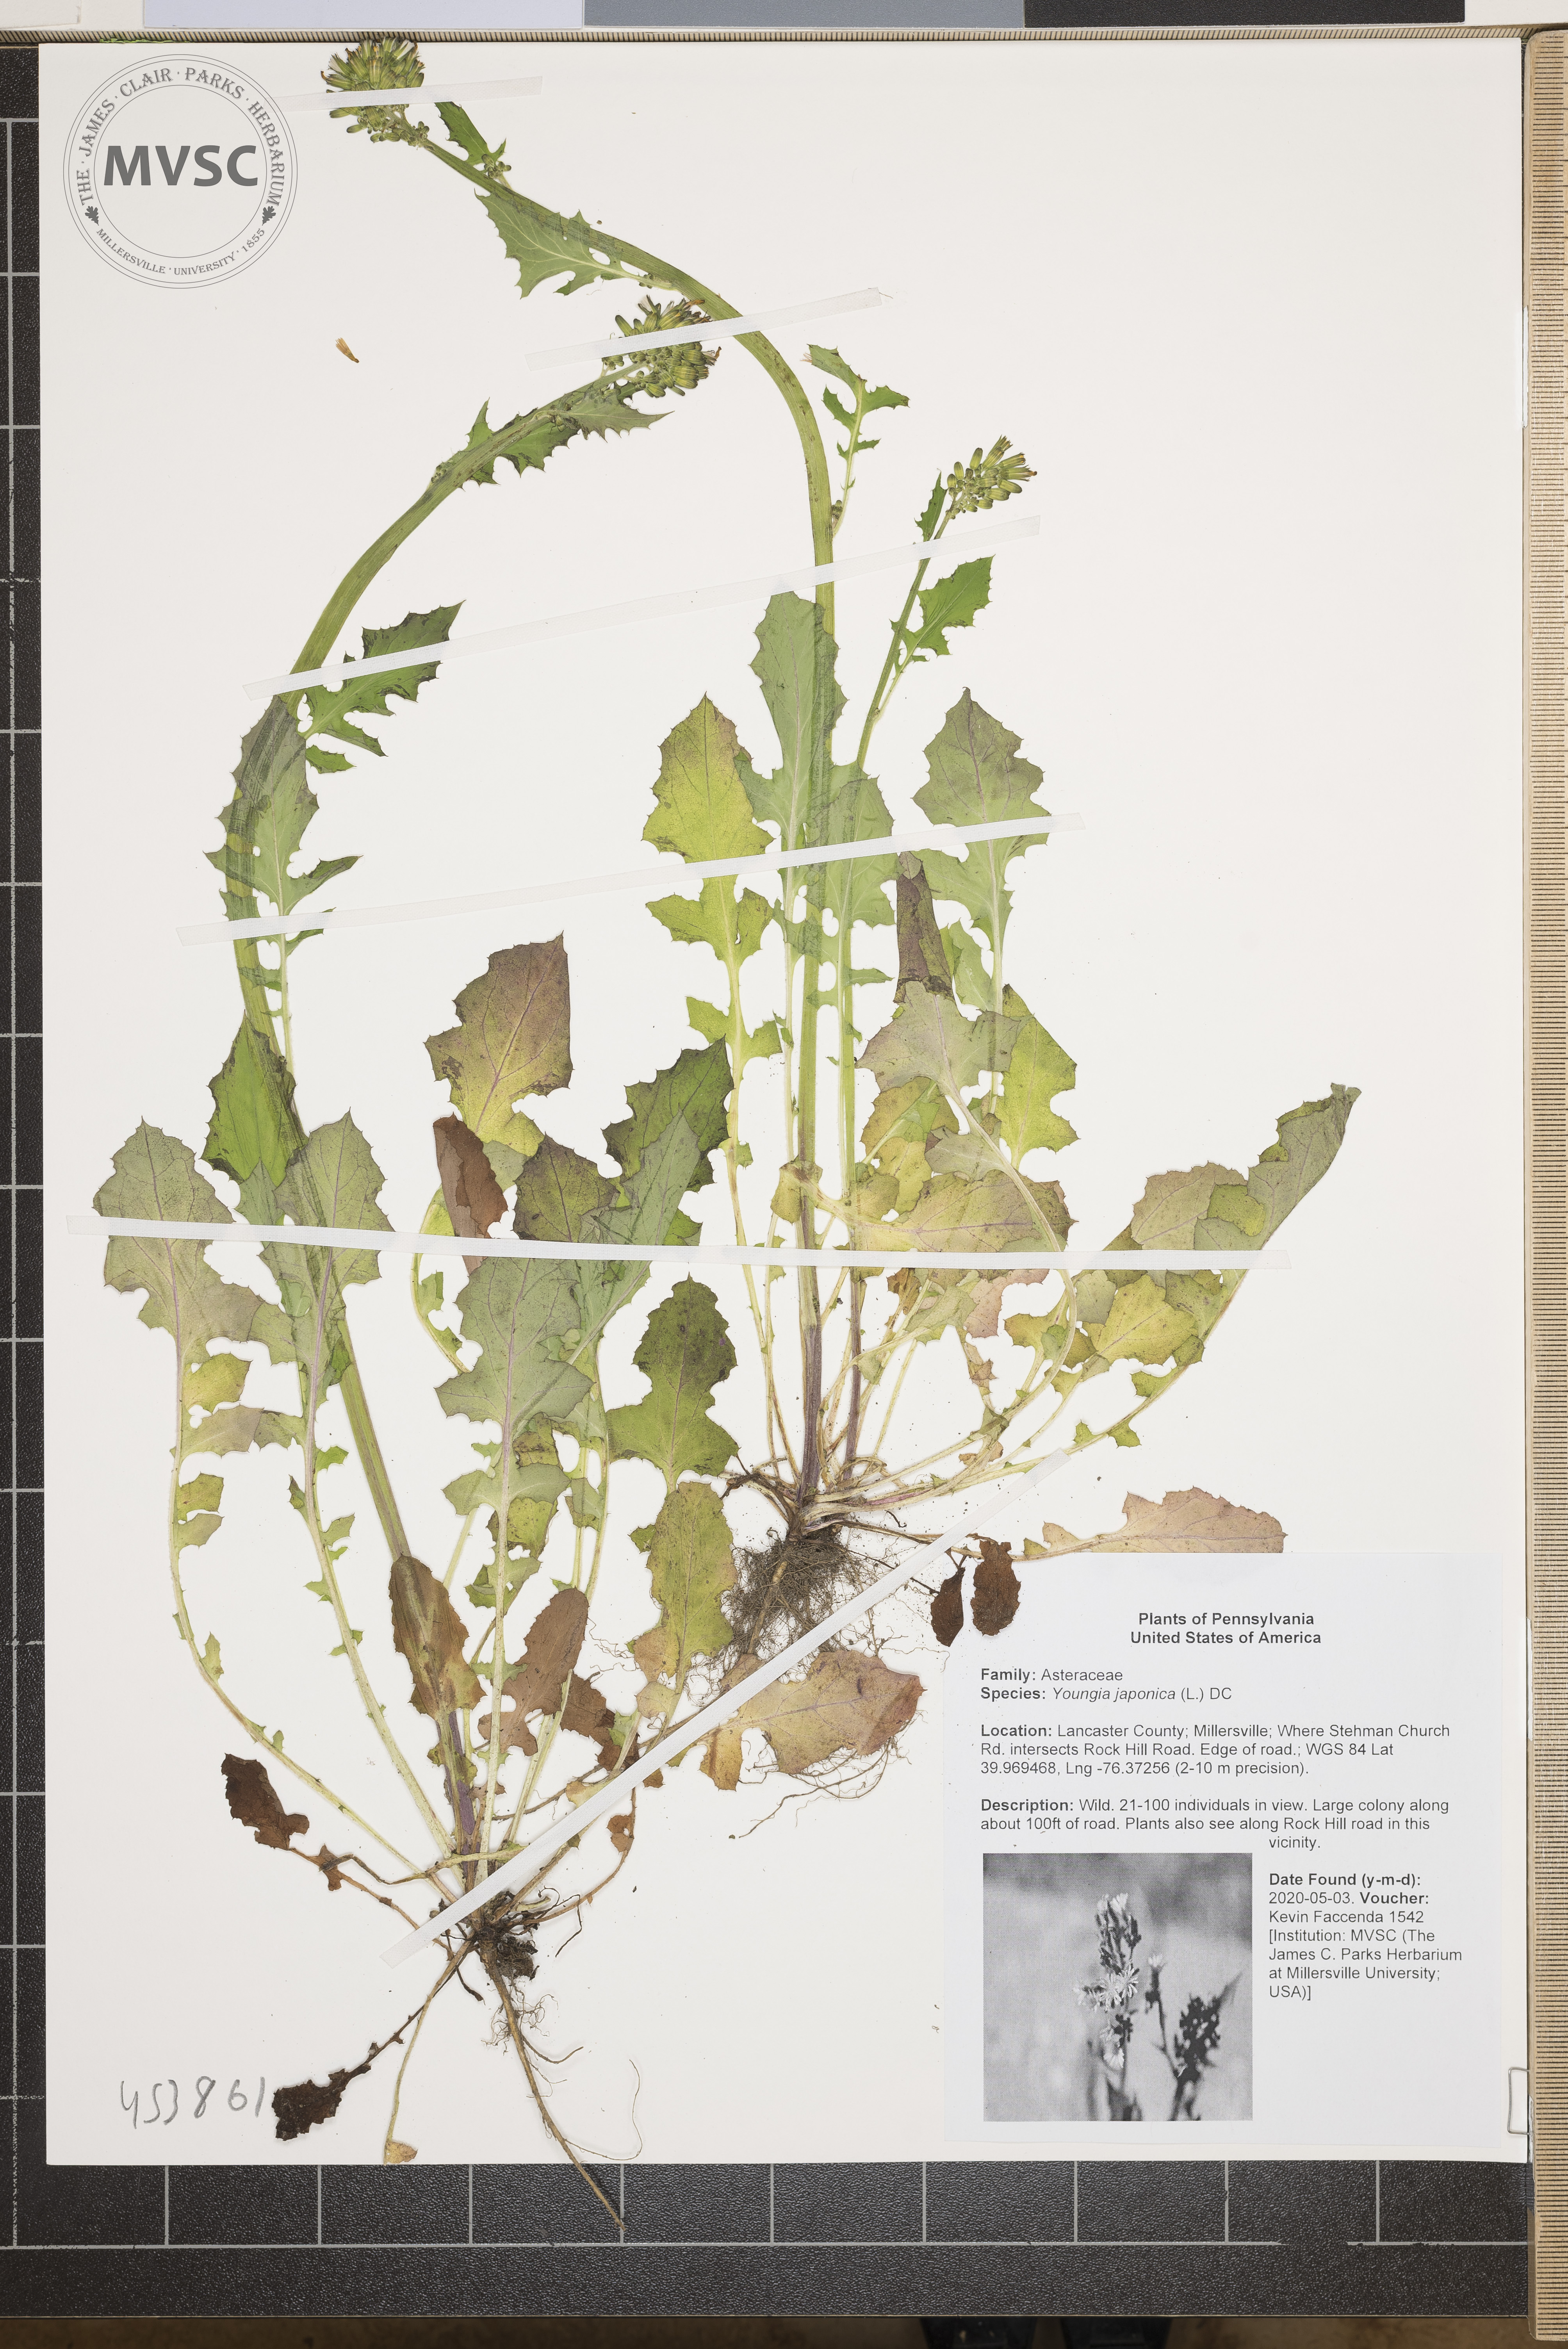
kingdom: Plantae
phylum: Tracheophyta
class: Magnoliopsida
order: Asterales
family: Asteraceae
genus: Youngia
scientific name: Youngia japonica
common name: Oriental false hawksbeard
